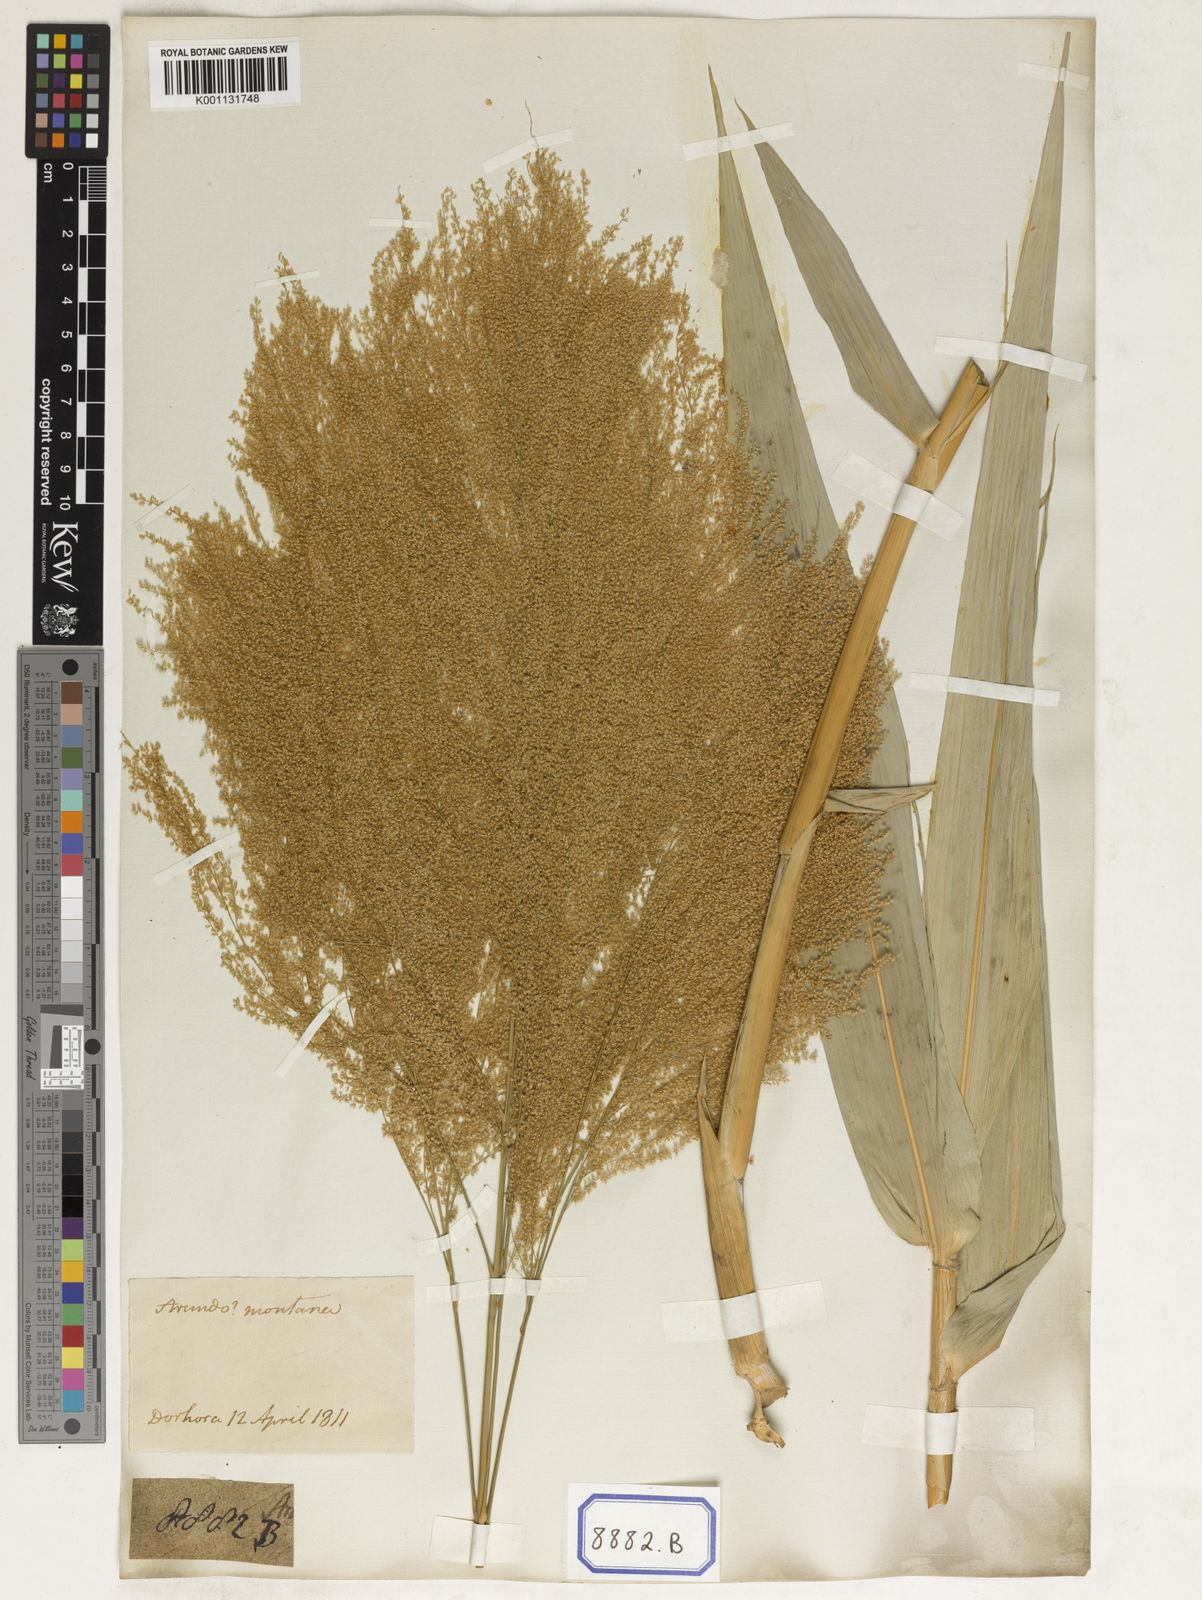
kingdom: Plantae
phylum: Tracheophyta
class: Liliopsida
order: Poales
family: Poaceae
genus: Thysanolaena
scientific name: Thysanolaena latifolia
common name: Tiger grass
